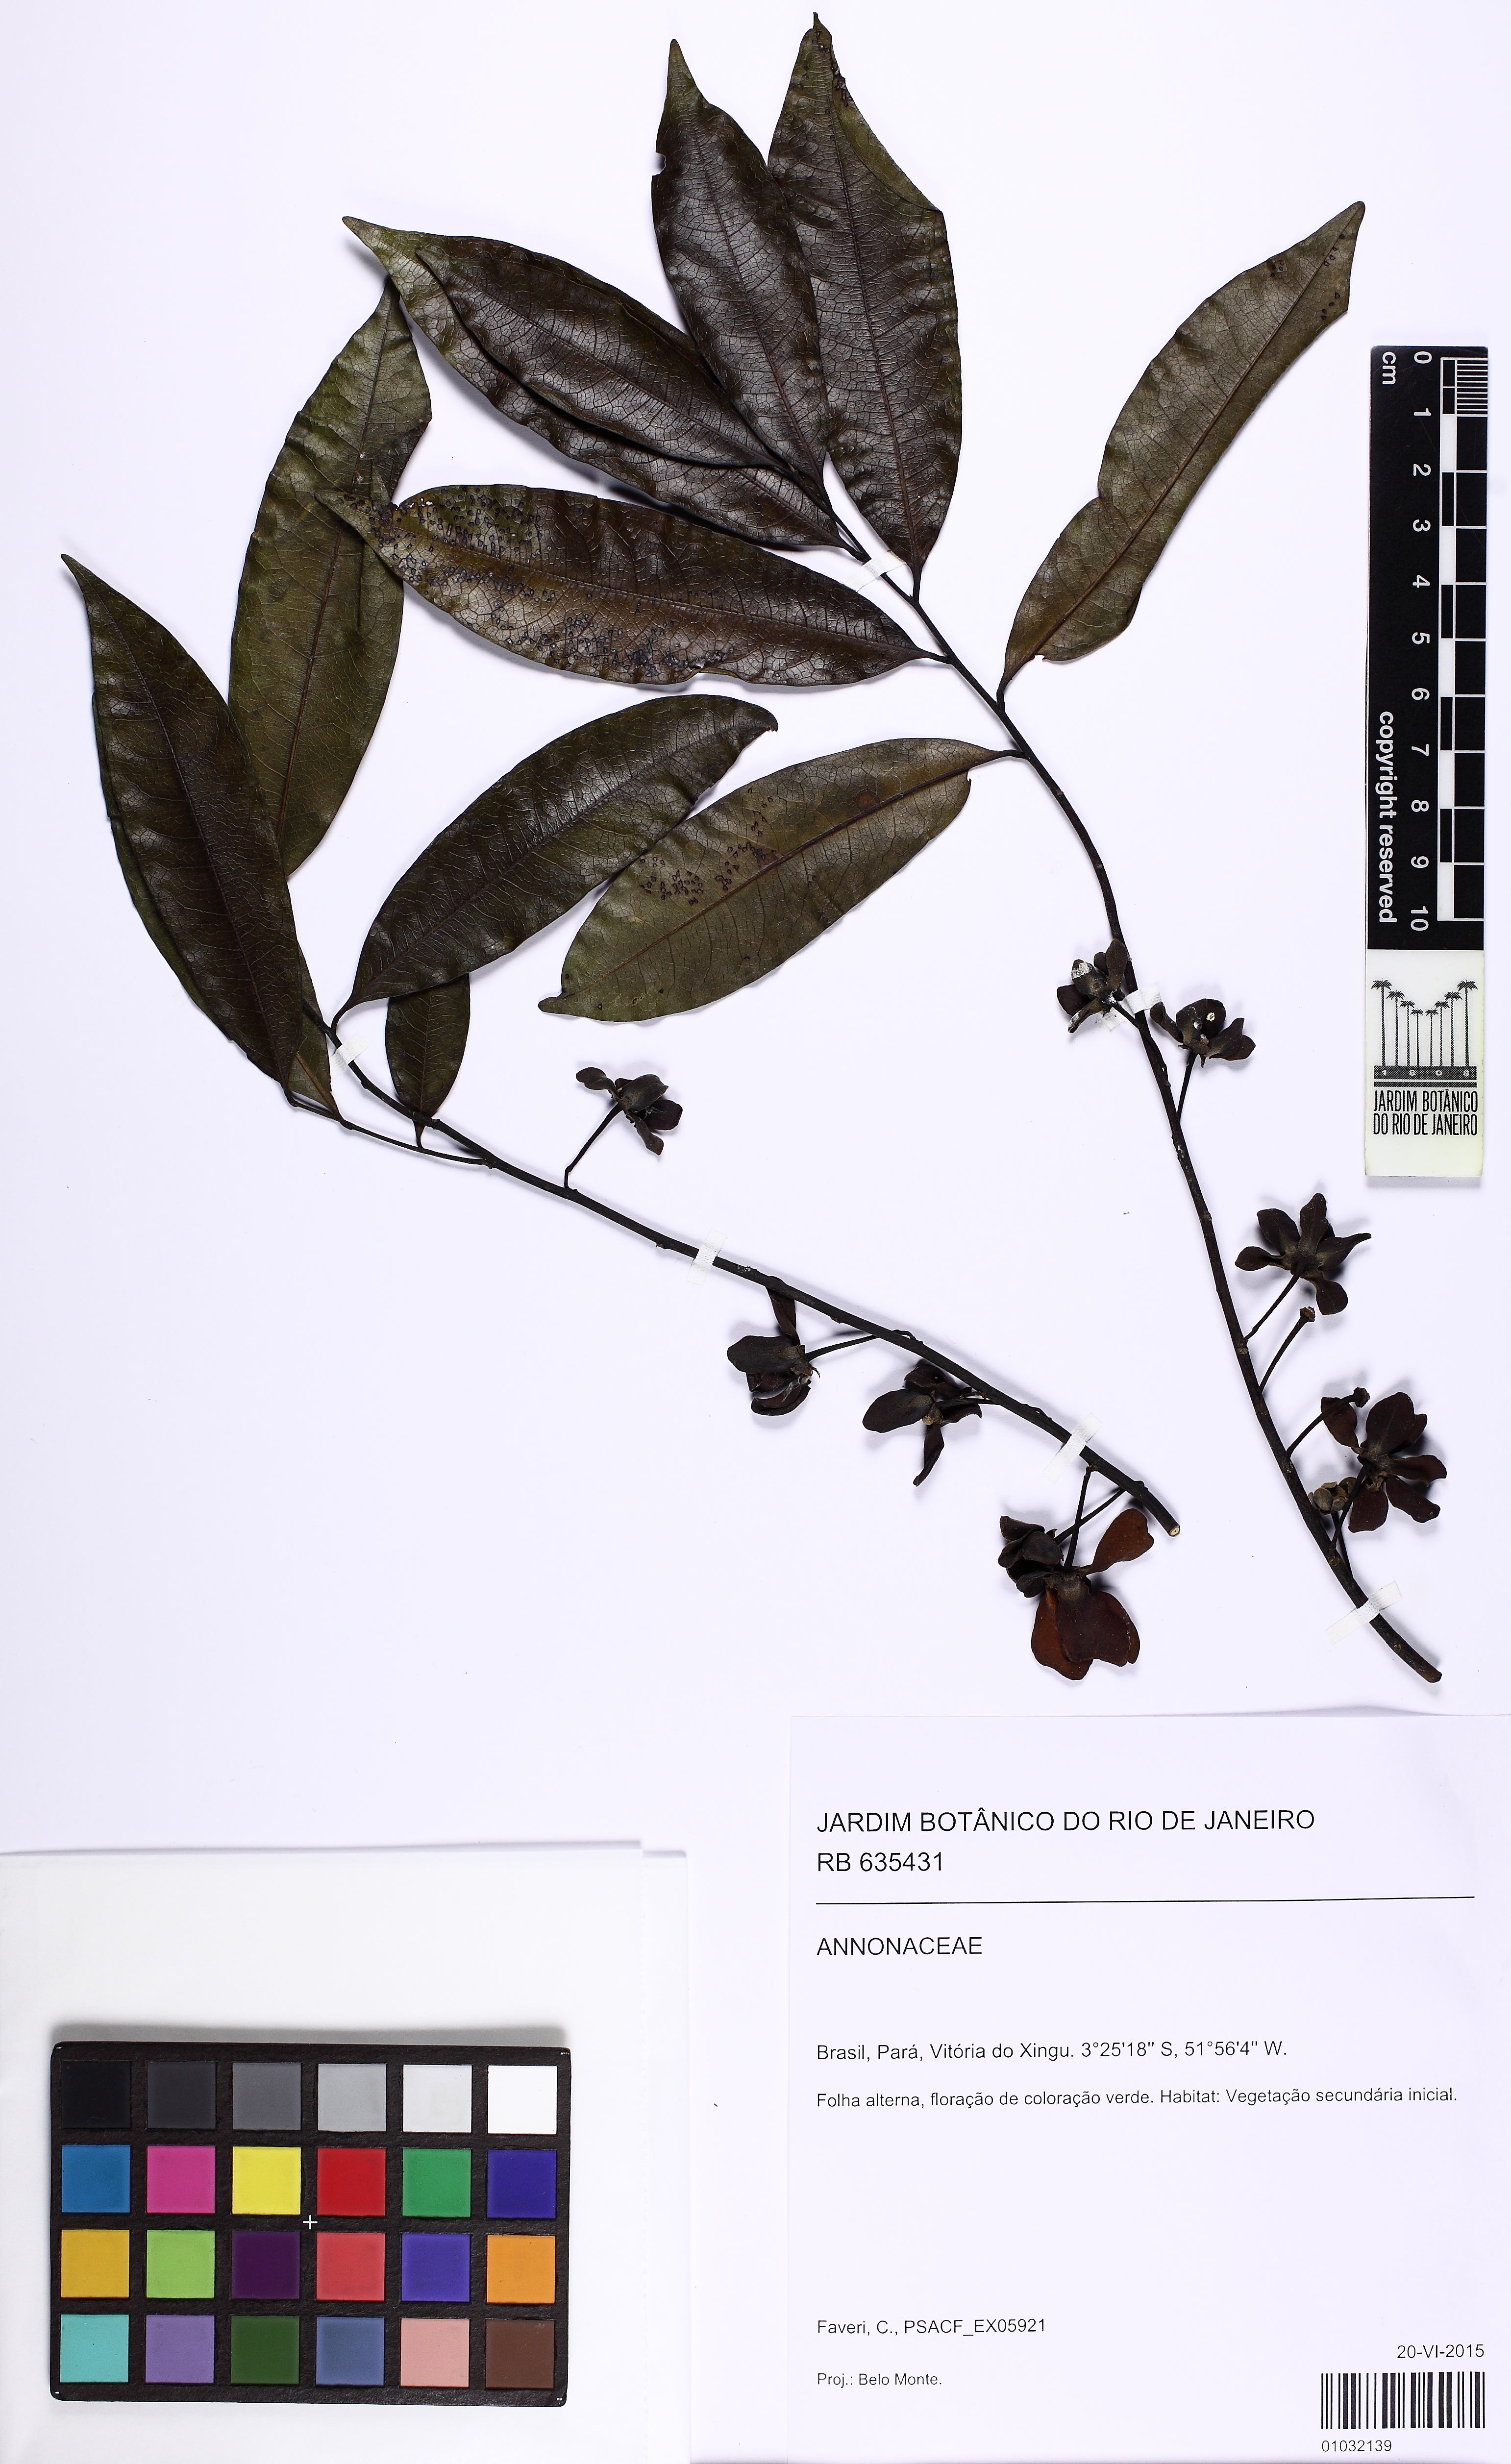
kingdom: Plantae
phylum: Tracheophyta
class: Magnoliopsida
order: Magnoliales
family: Annonaceae
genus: Guatteria
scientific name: Guatteria
